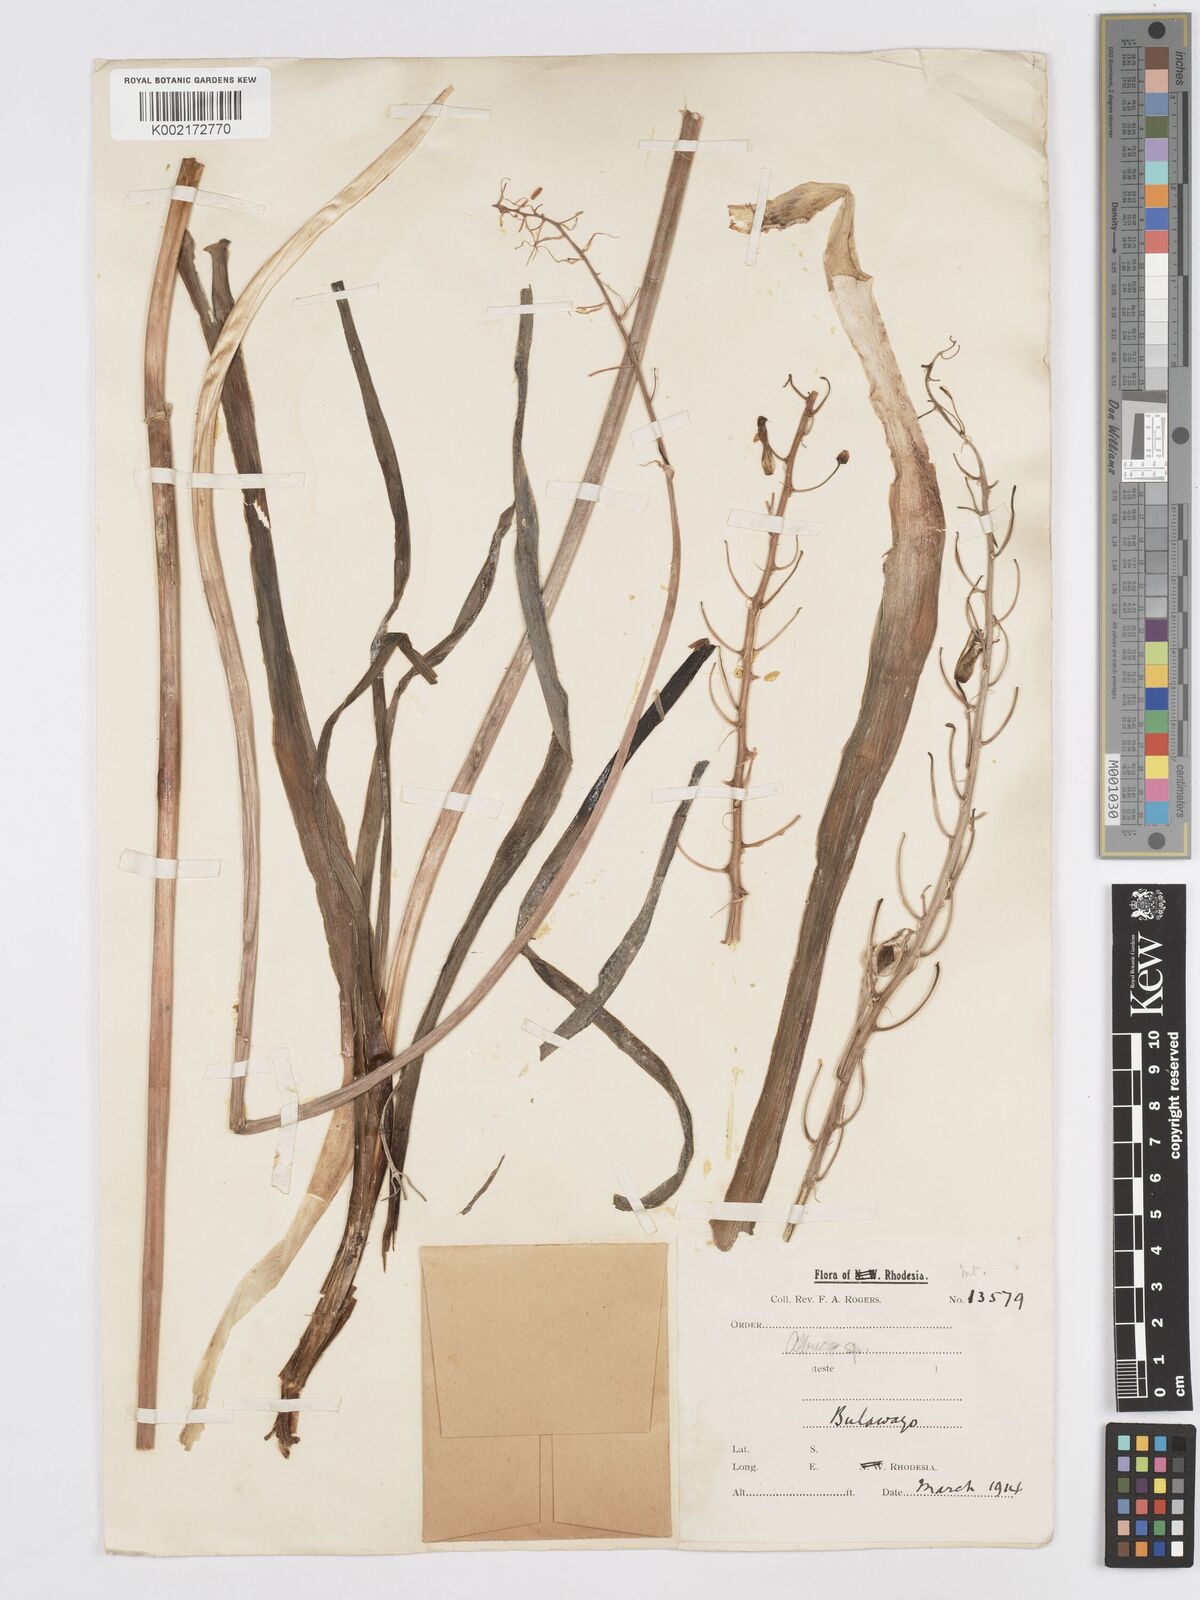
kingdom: Plantae
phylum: Tracheophyta
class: Liliopsida
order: Asparagales
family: Asparagaceae
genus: Albuca
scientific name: Albuca
